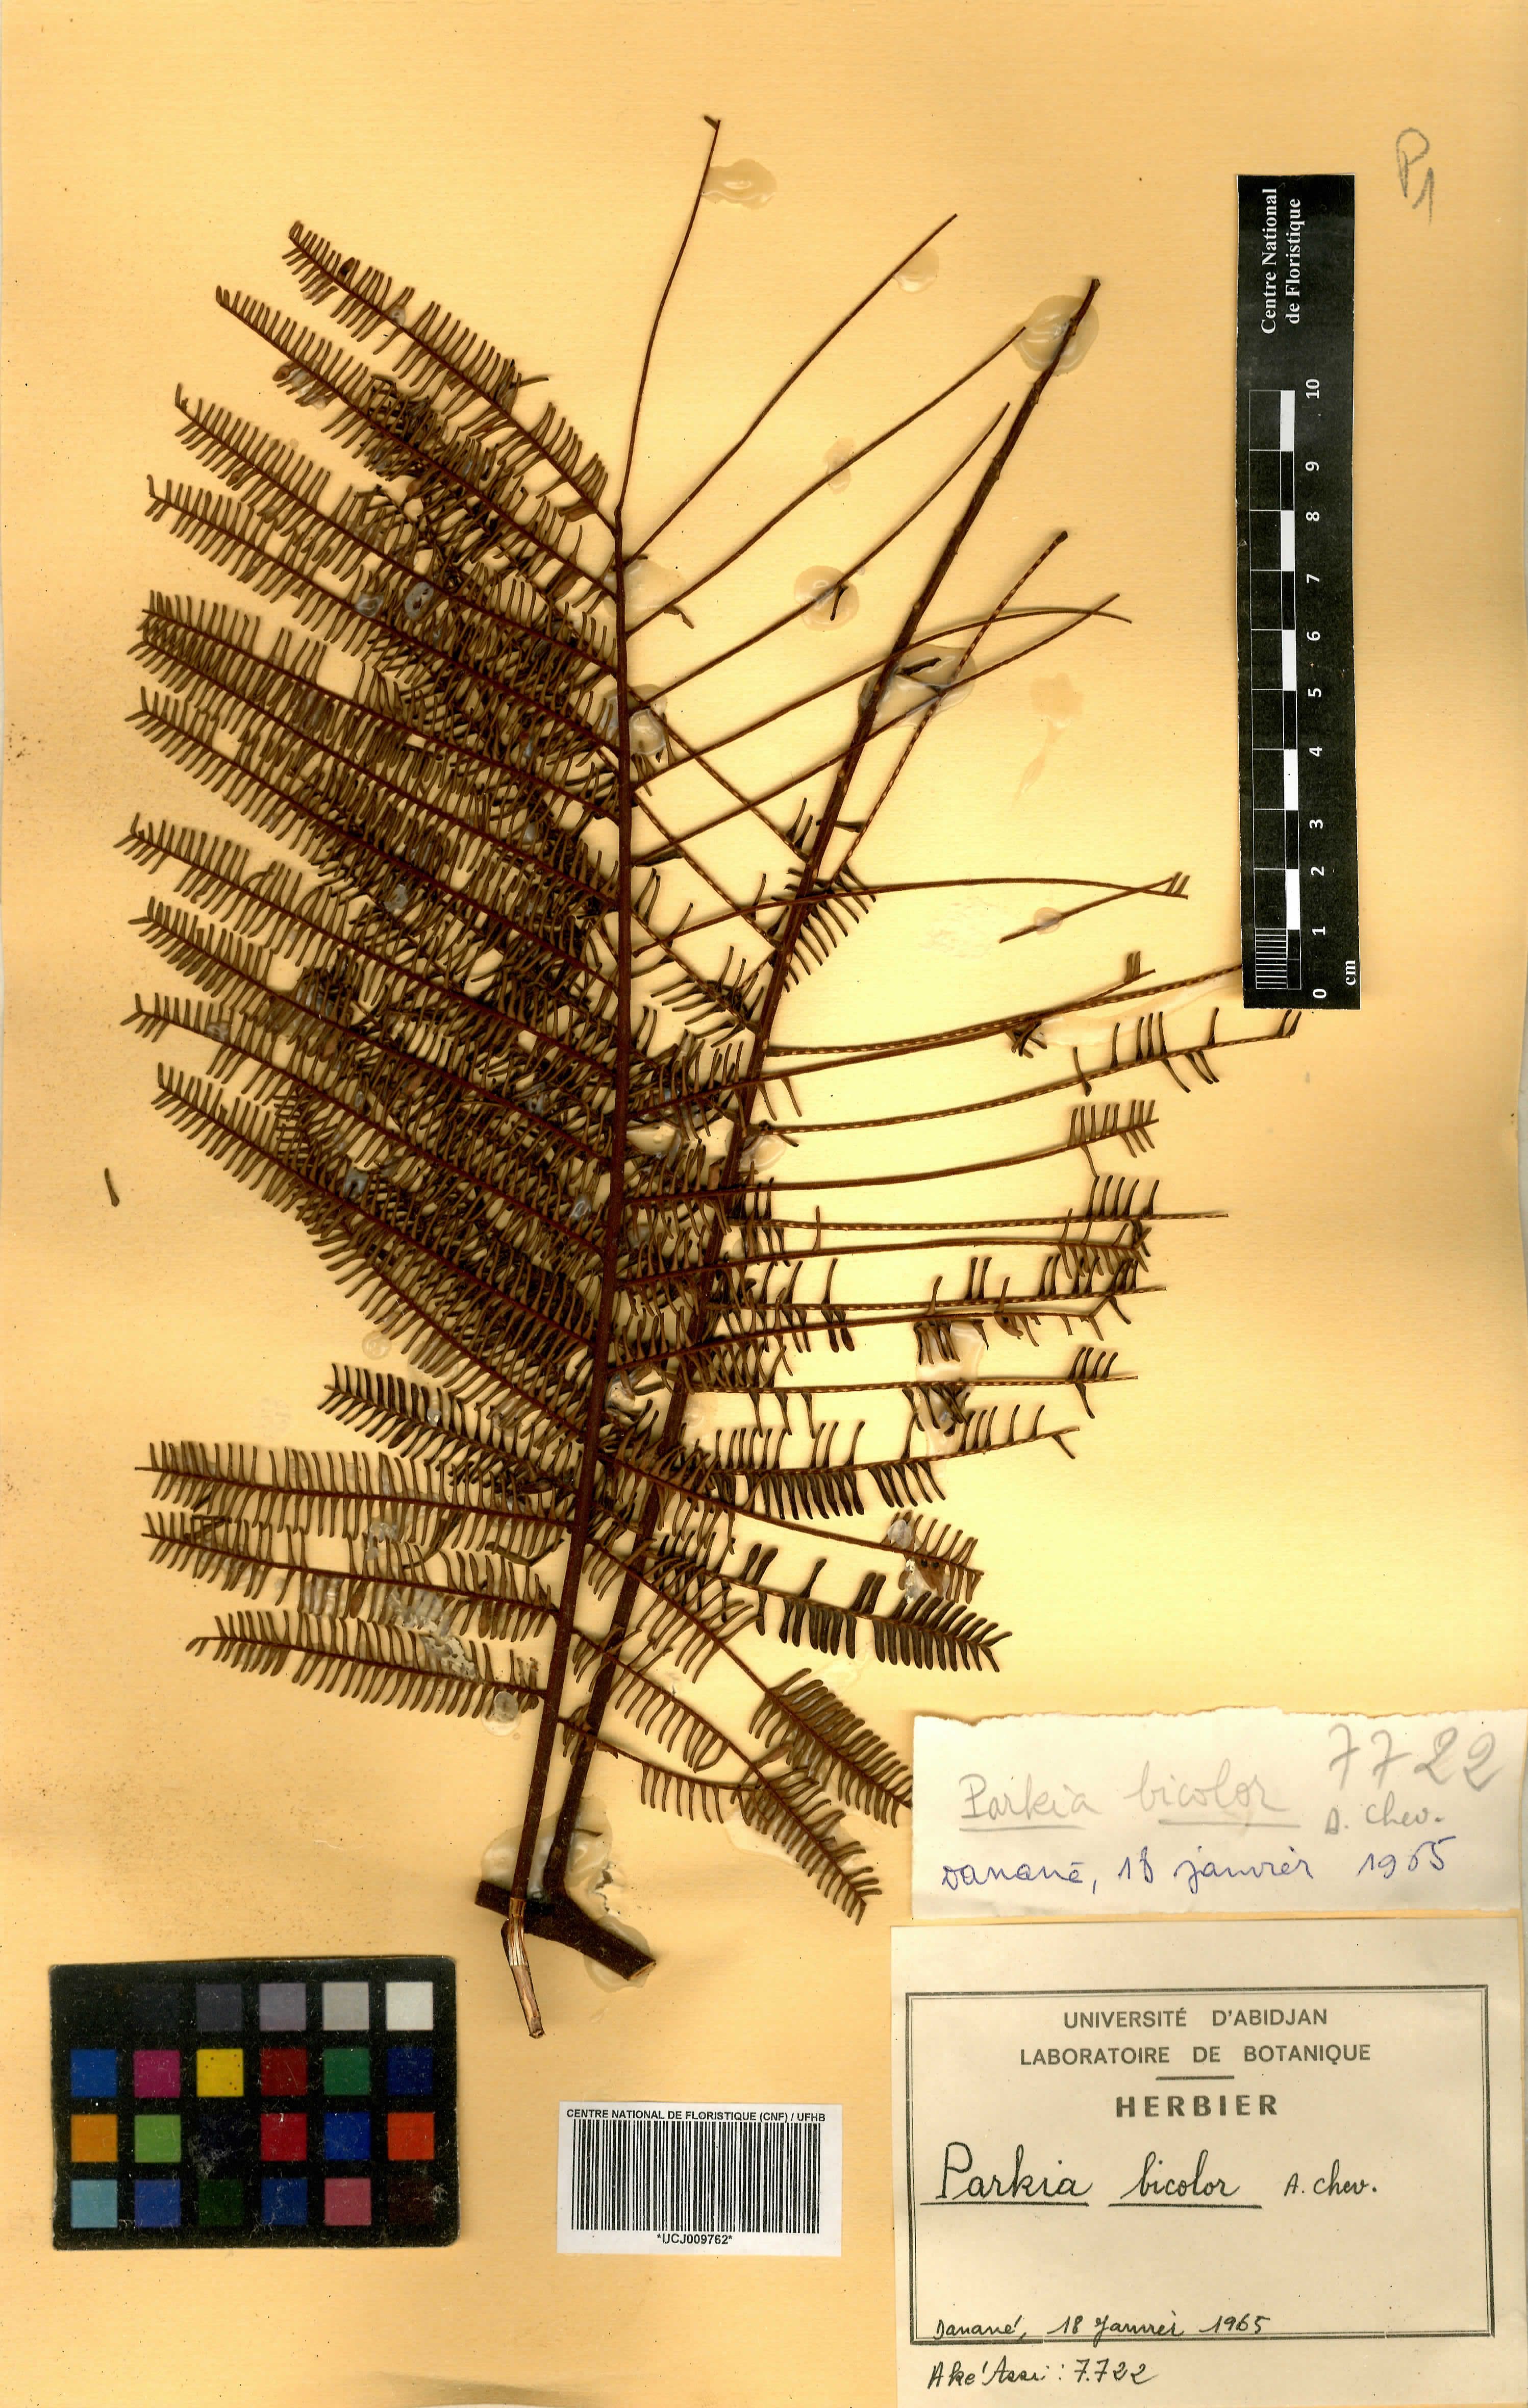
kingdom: Plantae
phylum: Tracheophyta
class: Magnoliopsida
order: Fabales
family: Fabaceae
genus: Parkia
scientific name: Parkia bicolor
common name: African locust-bean
